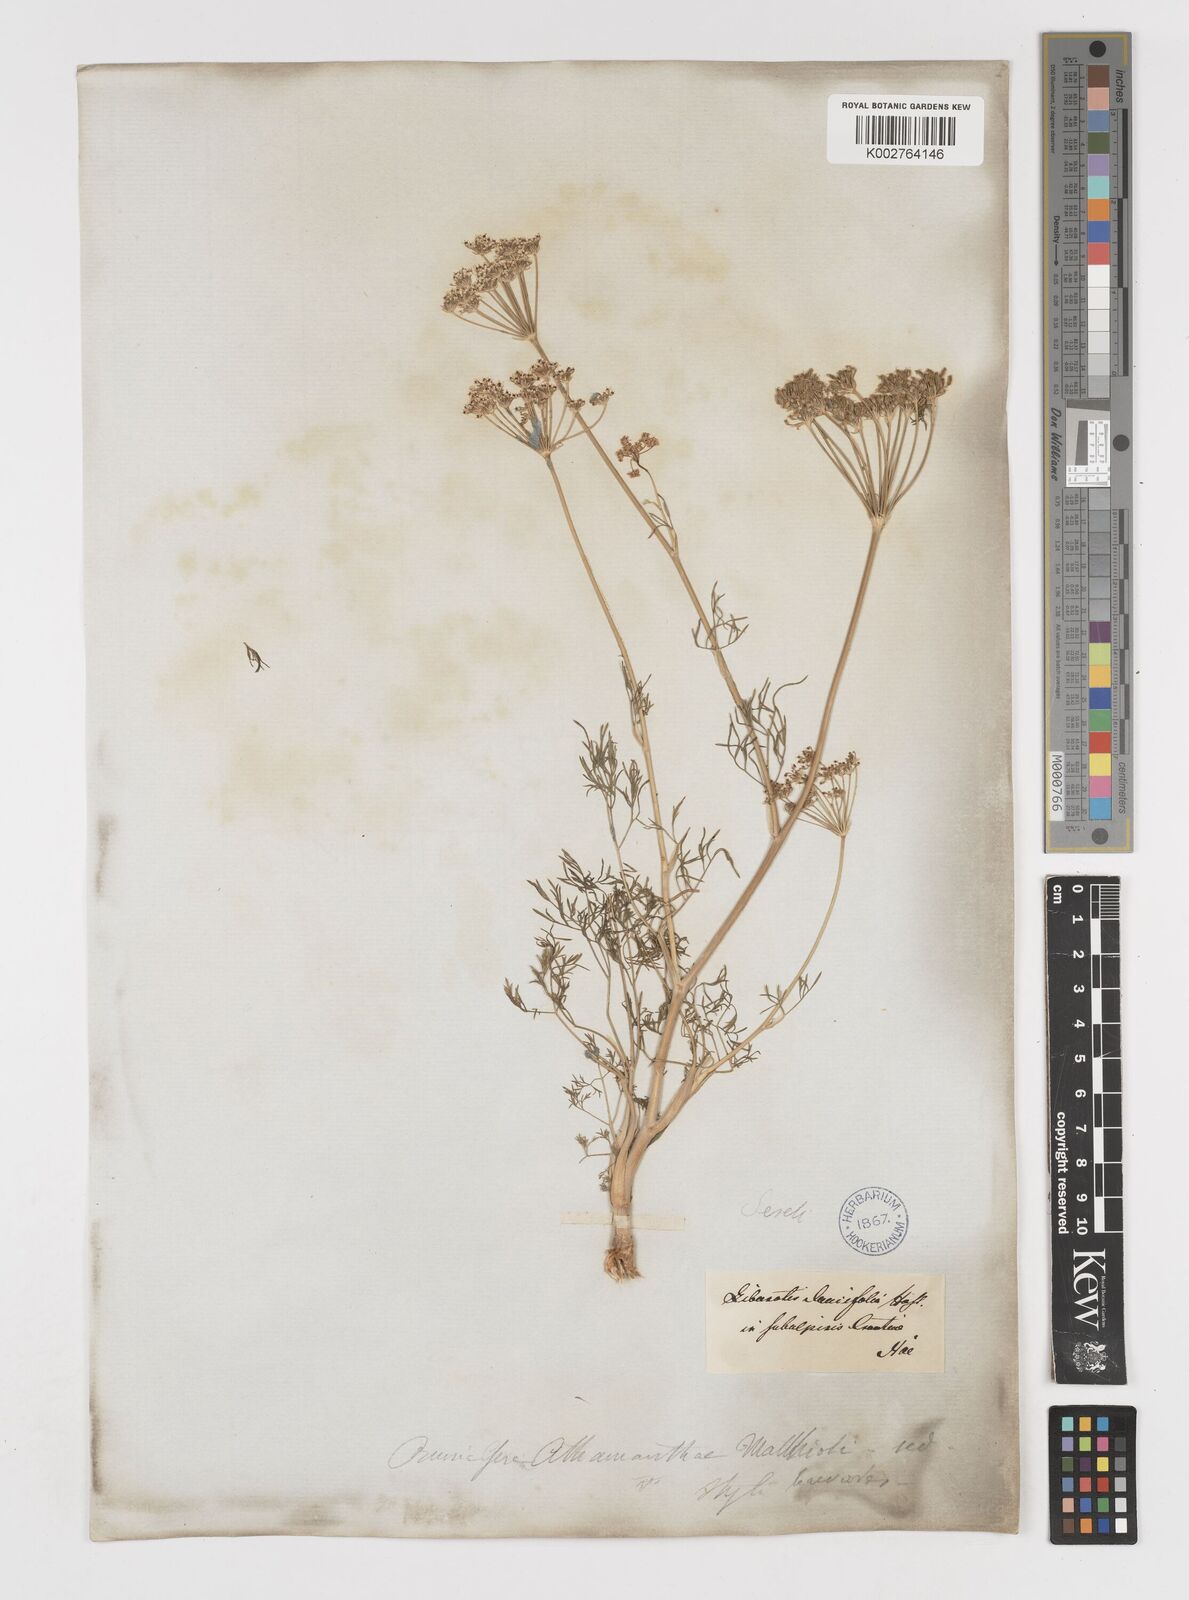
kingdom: Plantae
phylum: Tracheophyta
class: Magnoliopsida
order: Apiales
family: Apiaceae
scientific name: Apiaceae
